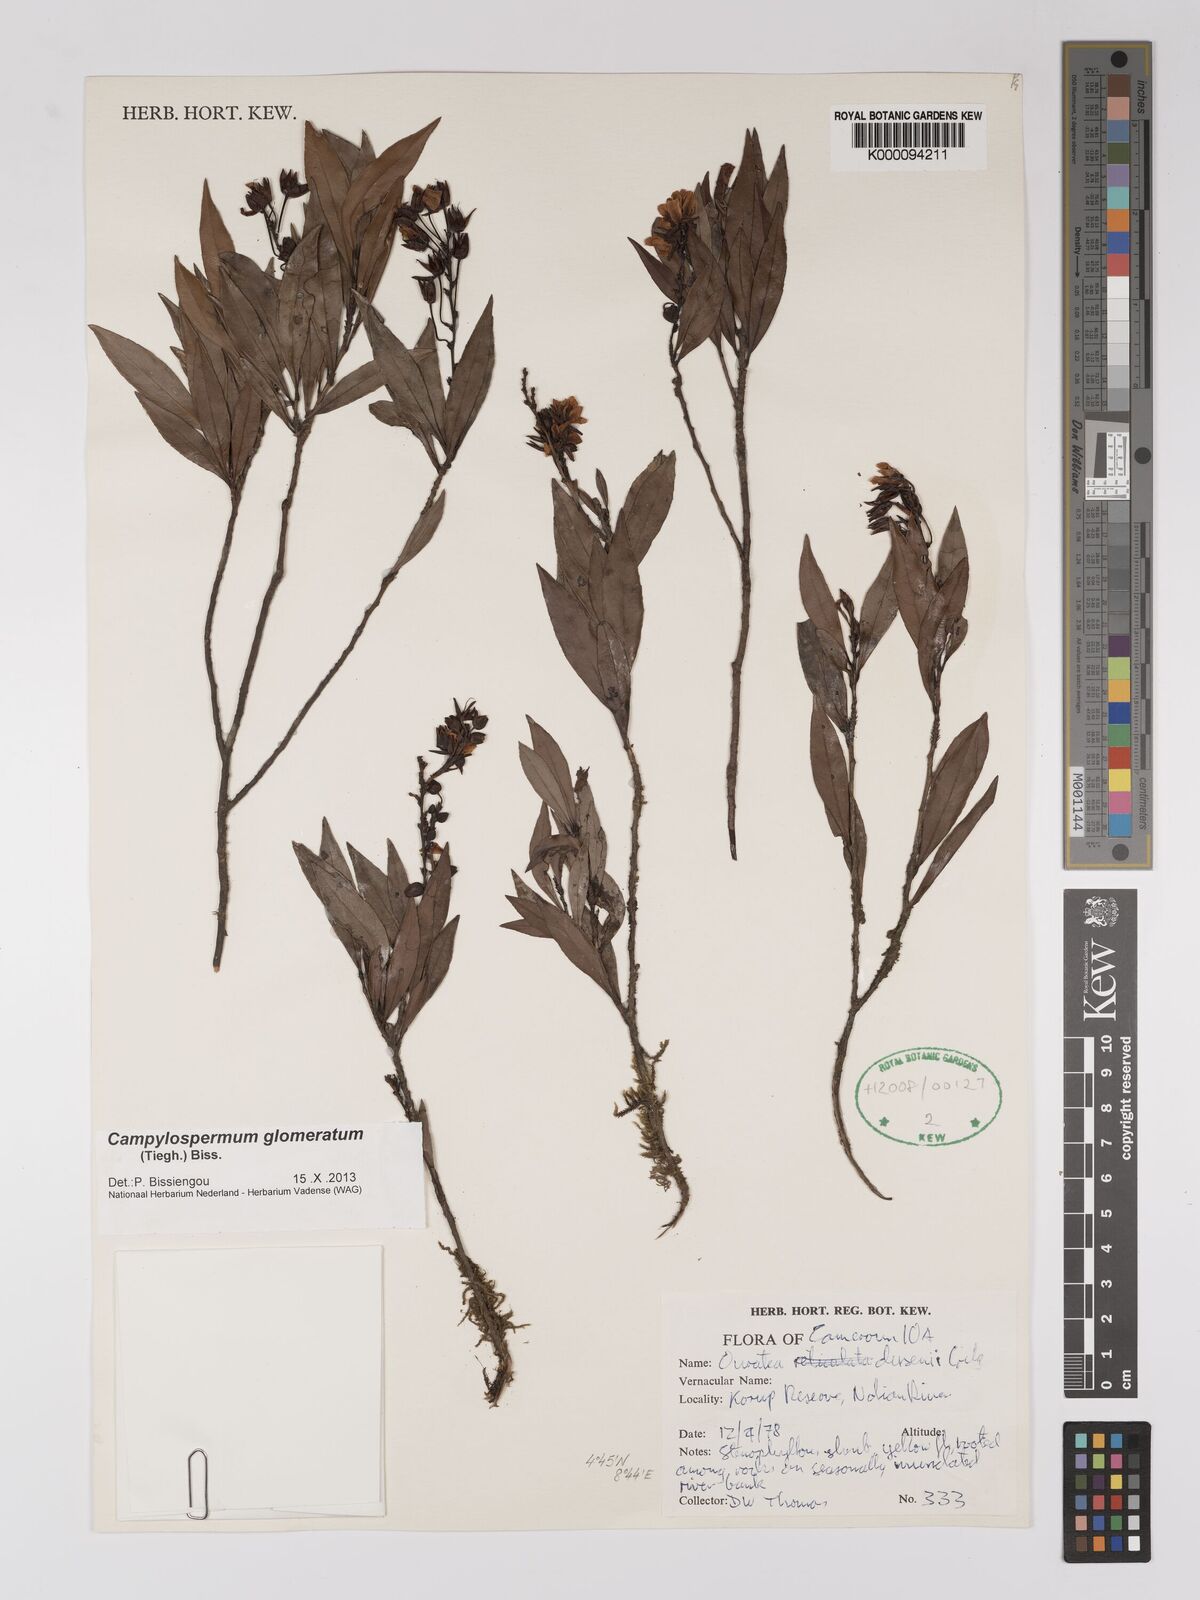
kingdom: Plantae
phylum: Tracheophyta
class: Magnoliopsida
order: Malpighiales
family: Ochnaceae
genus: Campylospermum
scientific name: Campylospermum dusenii
